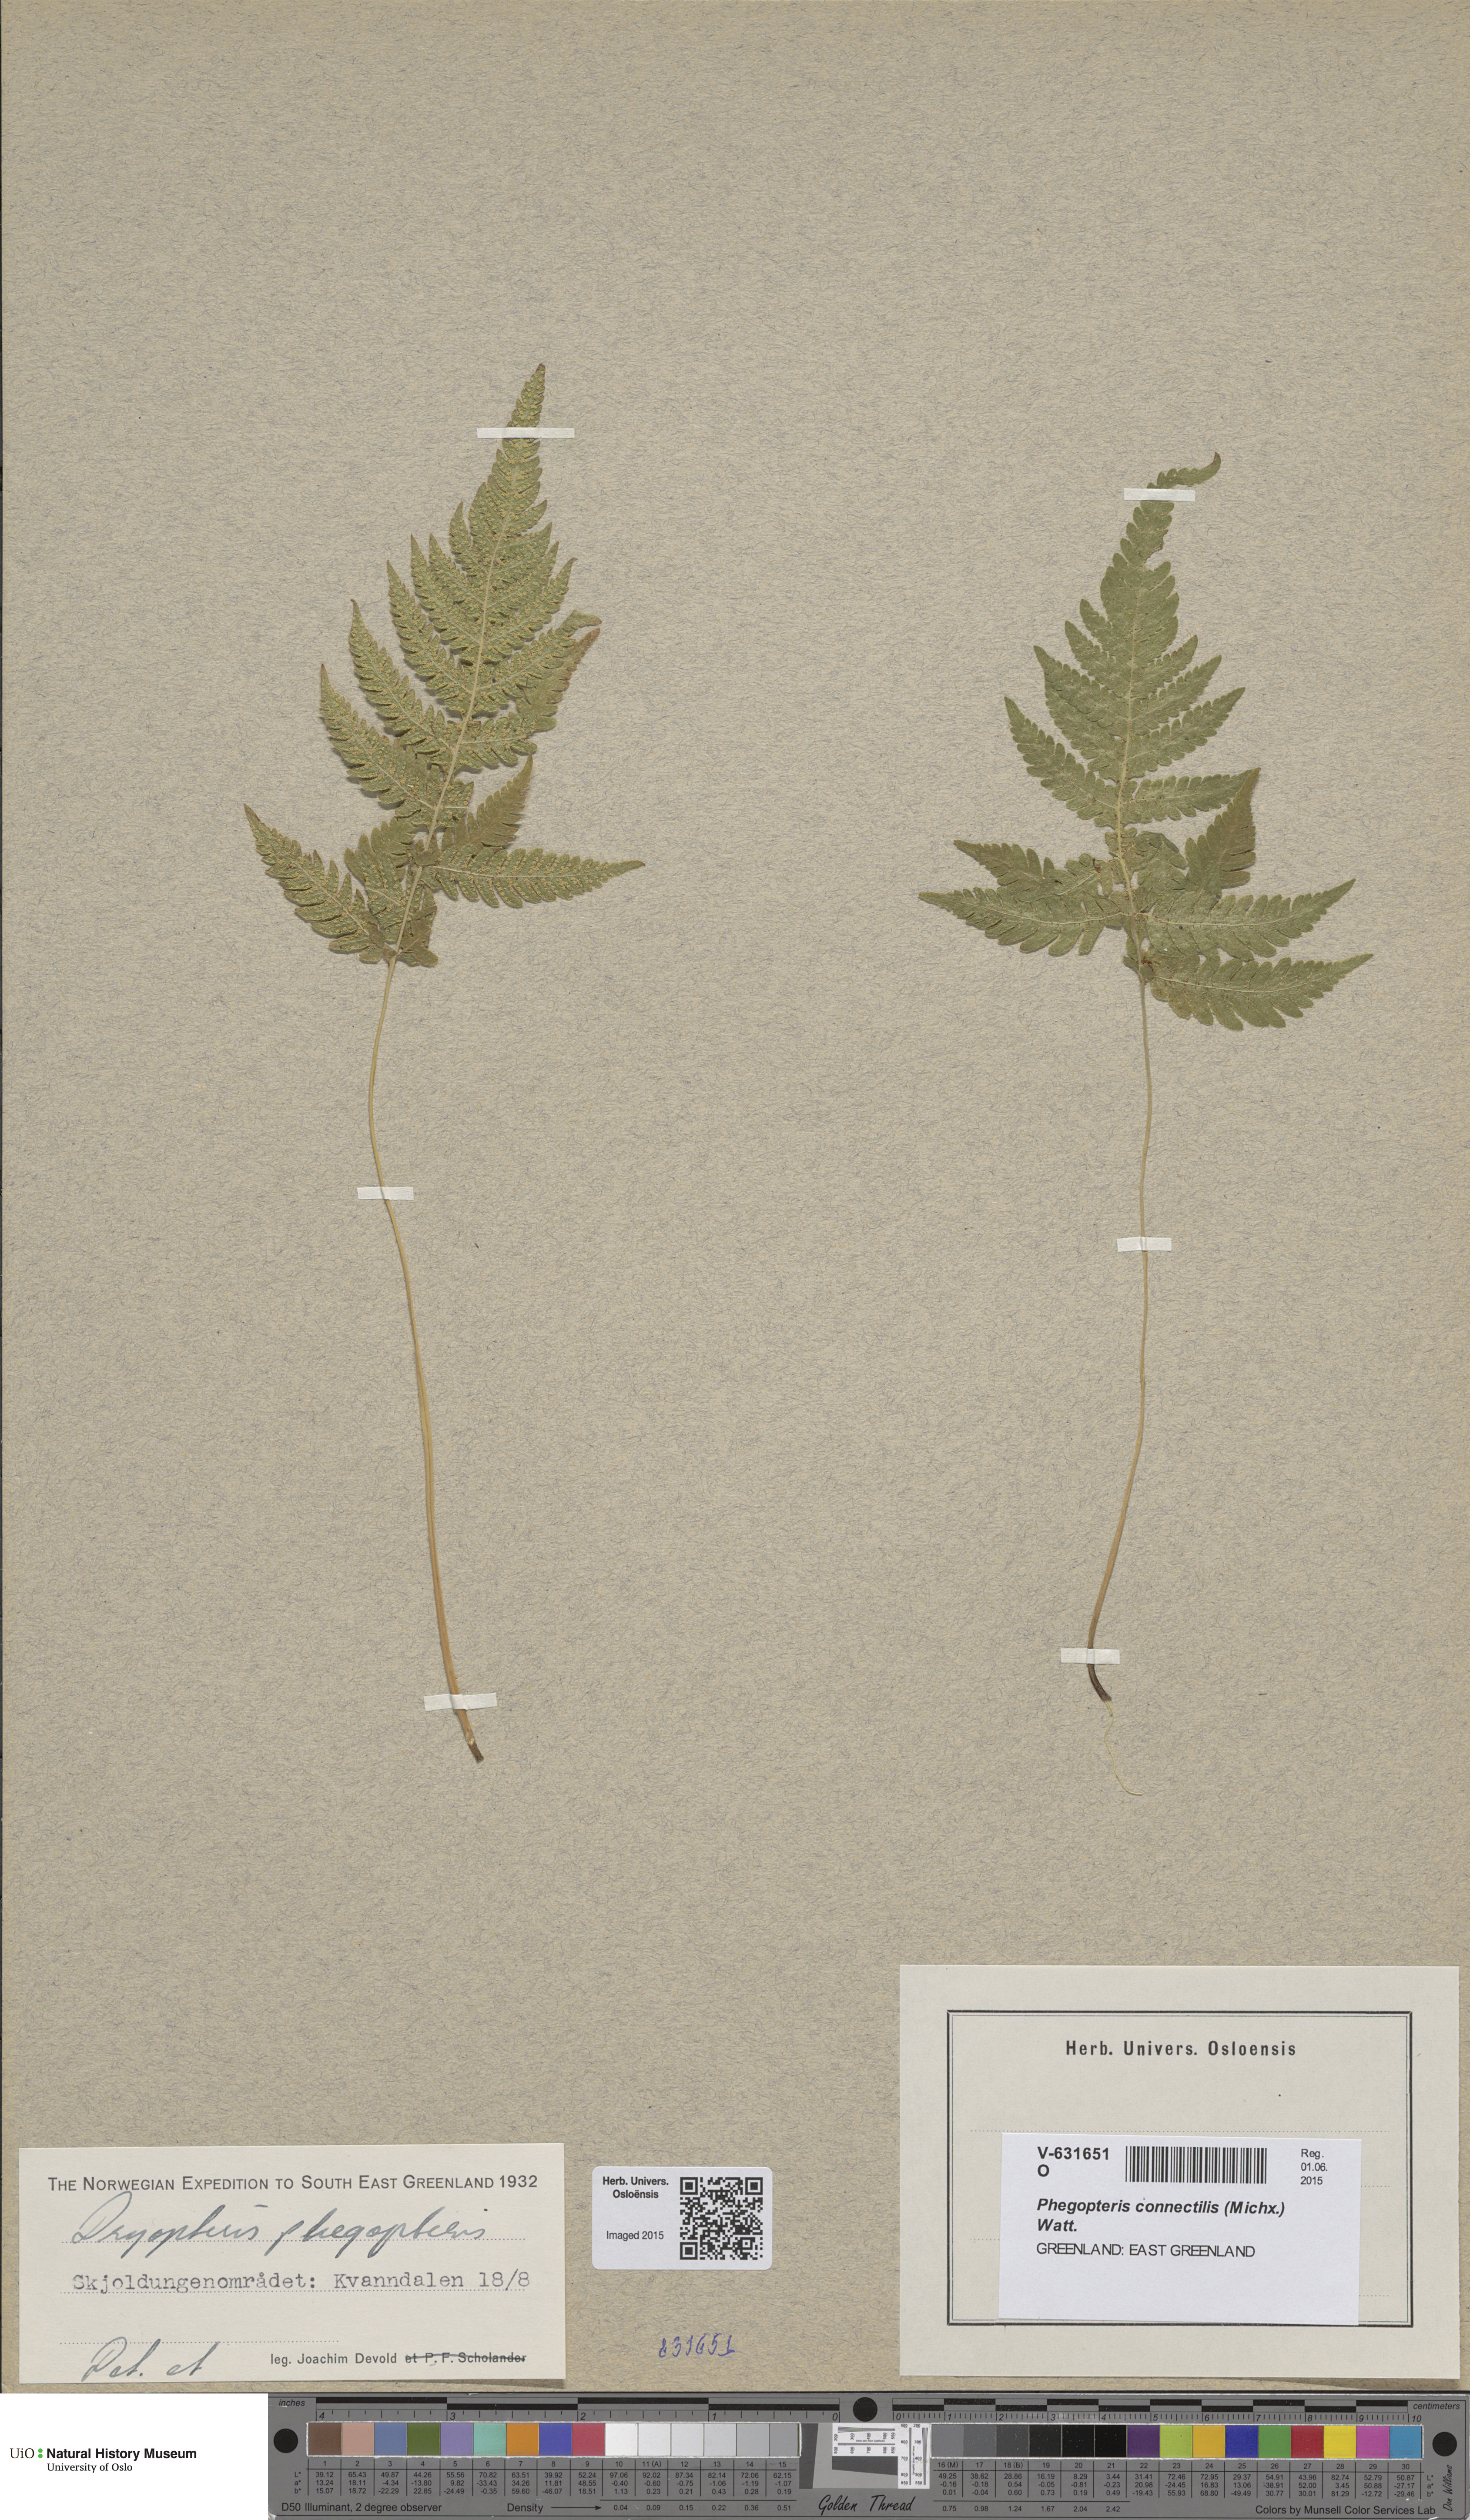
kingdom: Plantae
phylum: Tracheophyta
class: Polypodiopsida
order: Polypodiales
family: Thelypteridaceae
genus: Phegopteris
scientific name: Phegopteris connectilis
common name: Beech fern
